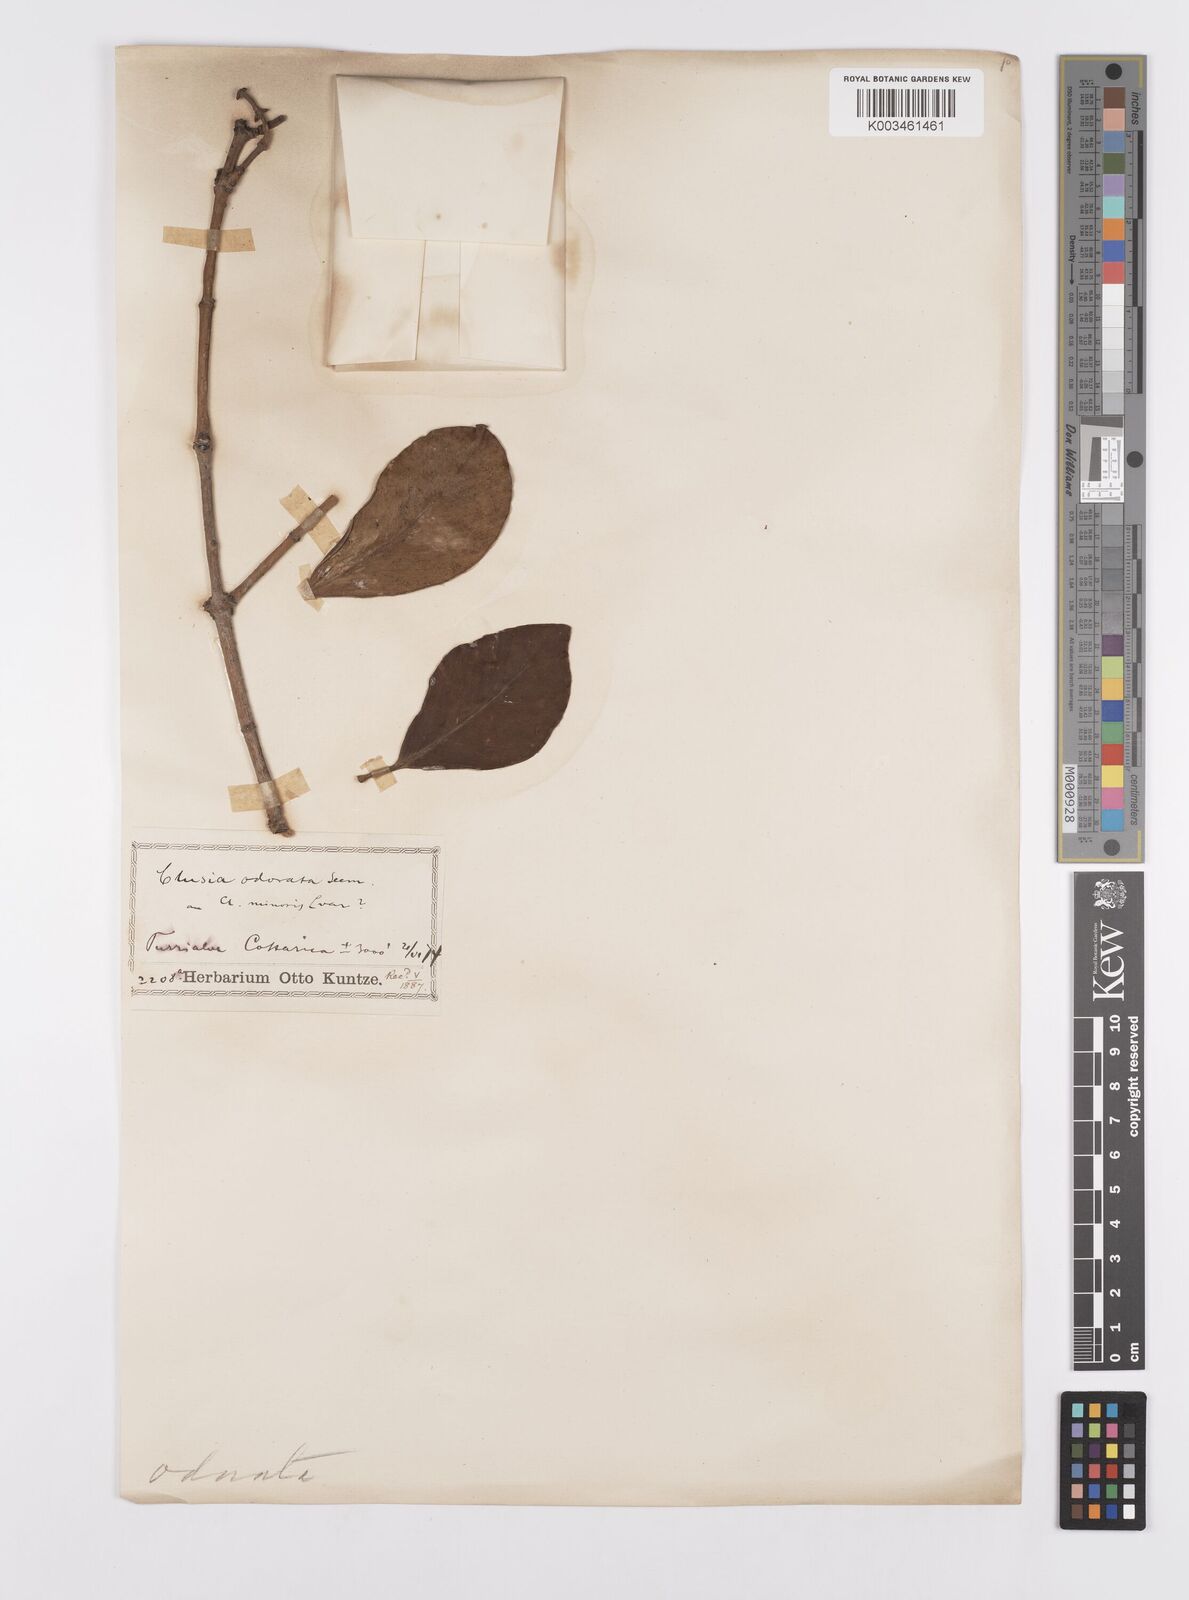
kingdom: Plantae
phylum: Tracheophyta
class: Magnoliopsida
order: Malpighiales
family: Clusiaceae
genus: Clusia
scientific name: Clusia minor
